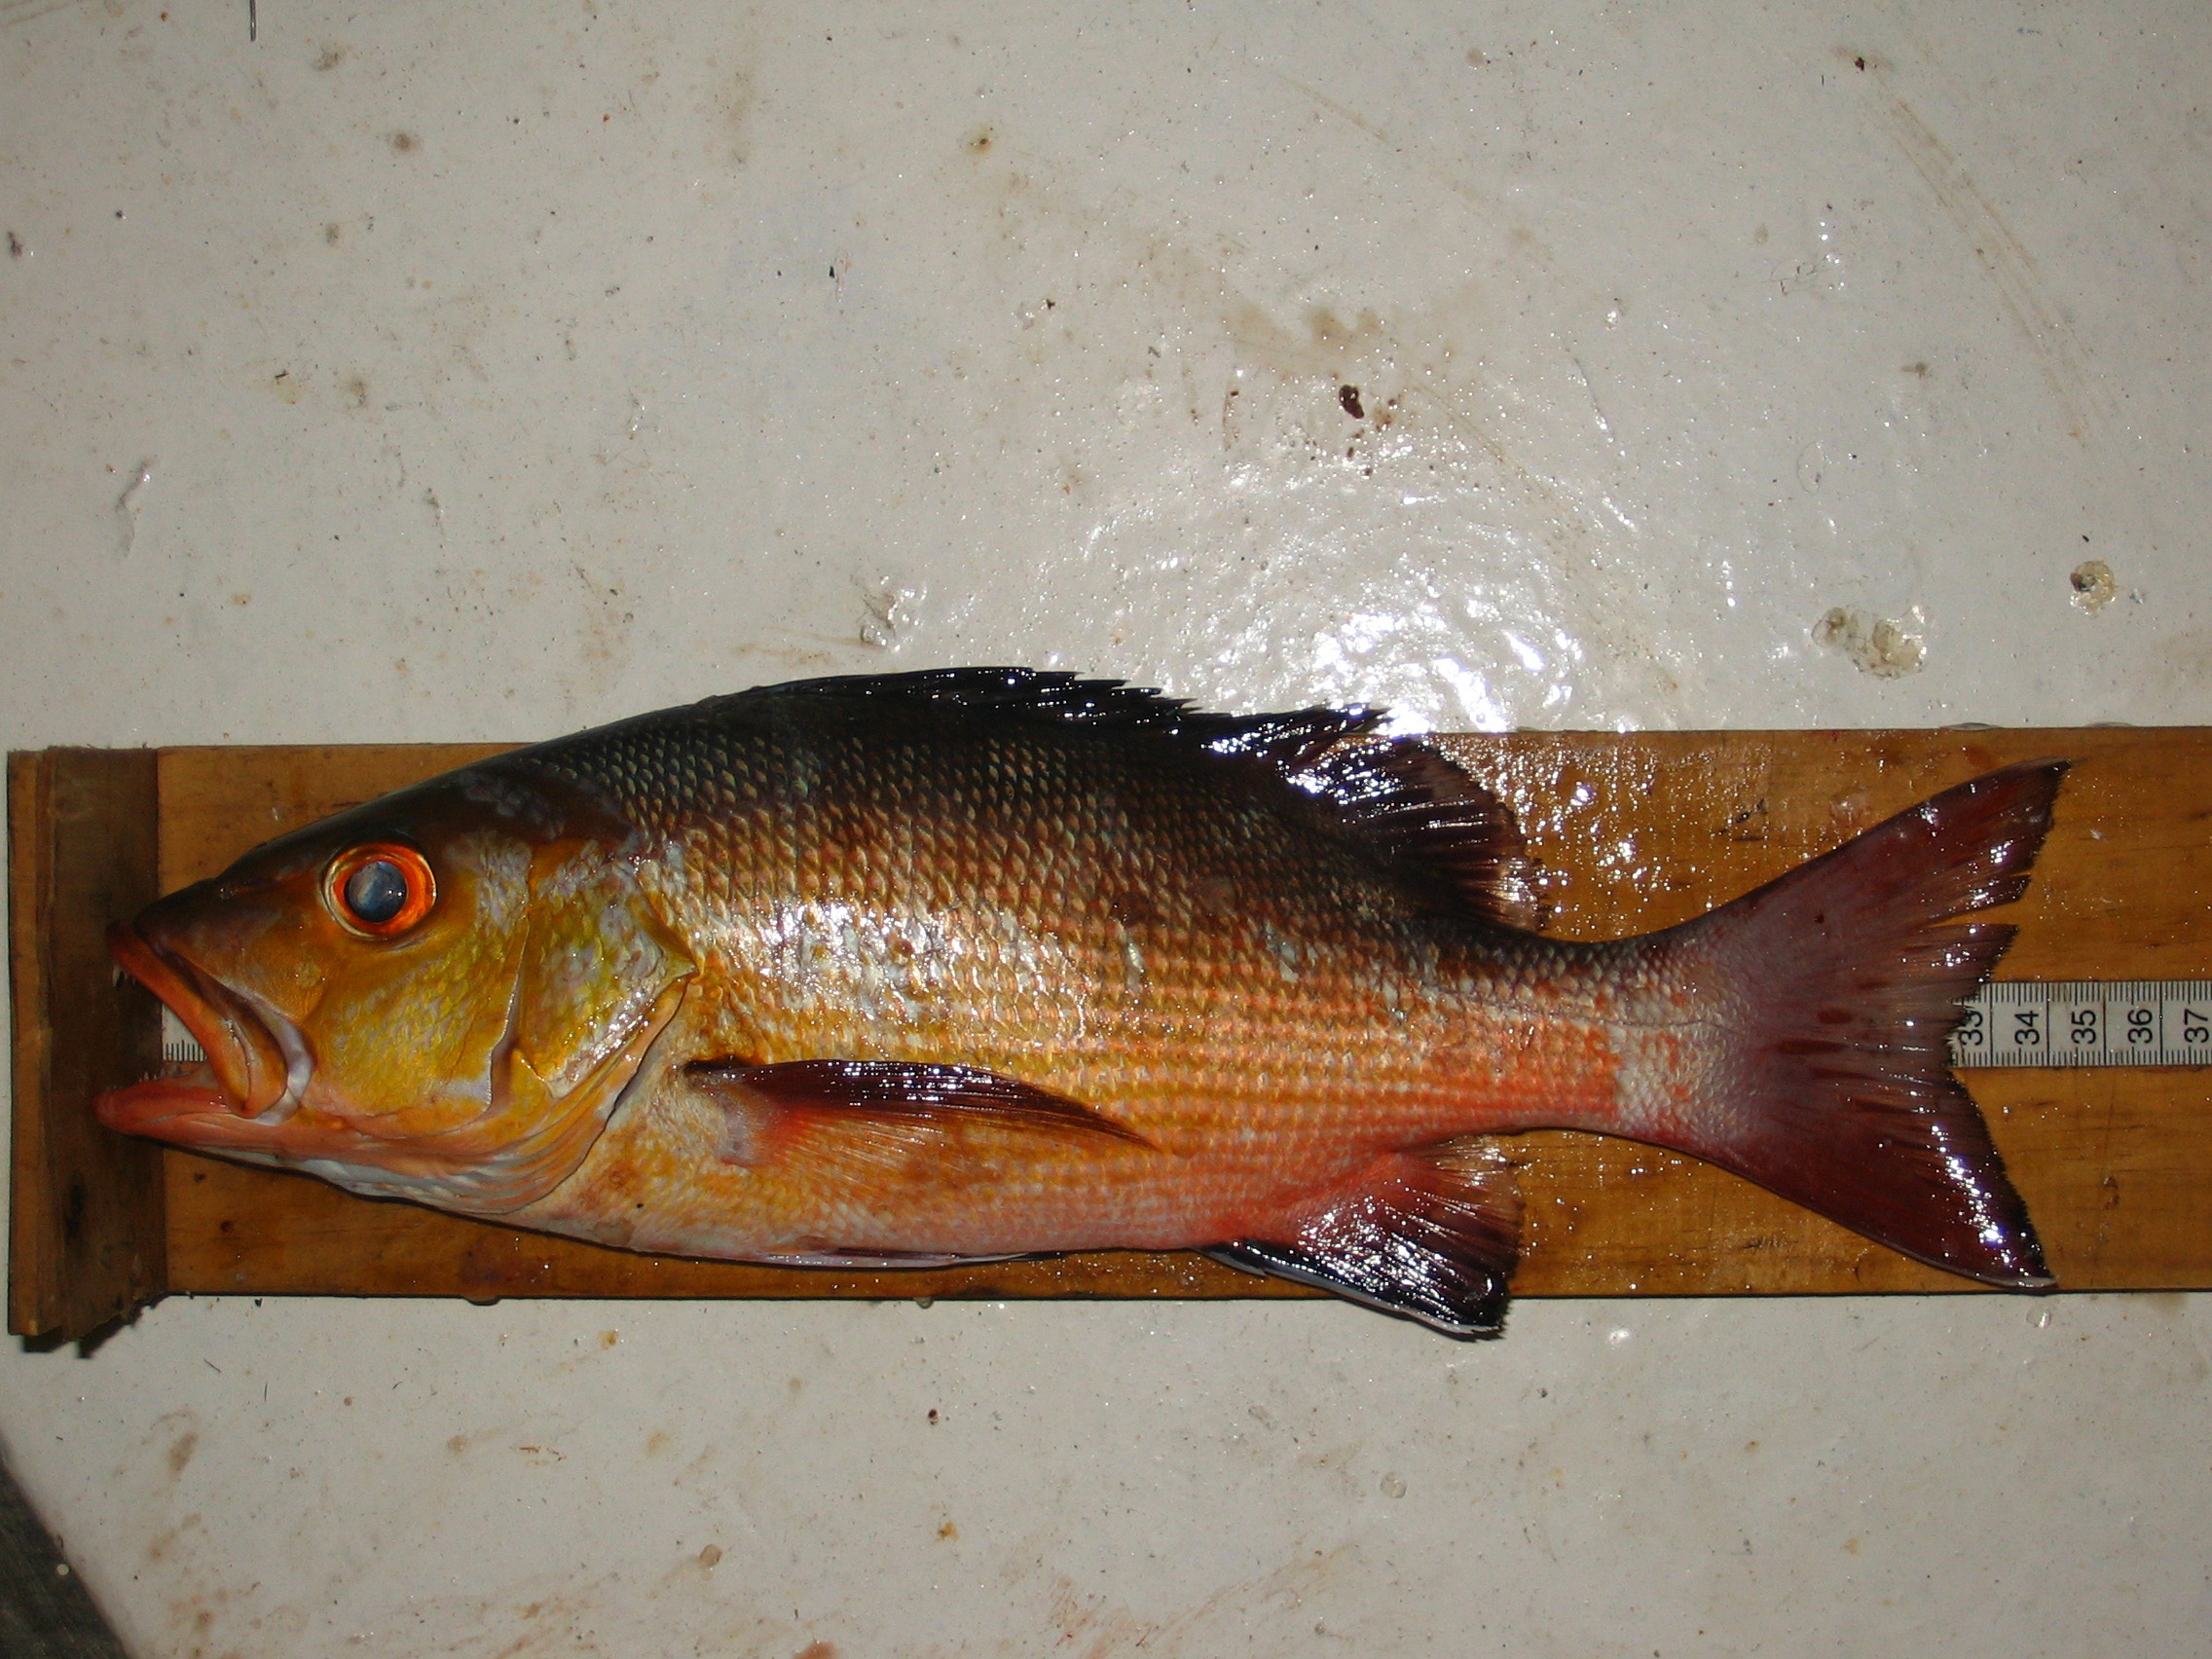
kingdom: Animalia
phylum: Chordata
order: Perciformes
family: Lutjanidae
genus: Lutjanus
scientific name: Lutjanus bohar
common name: Red bass
